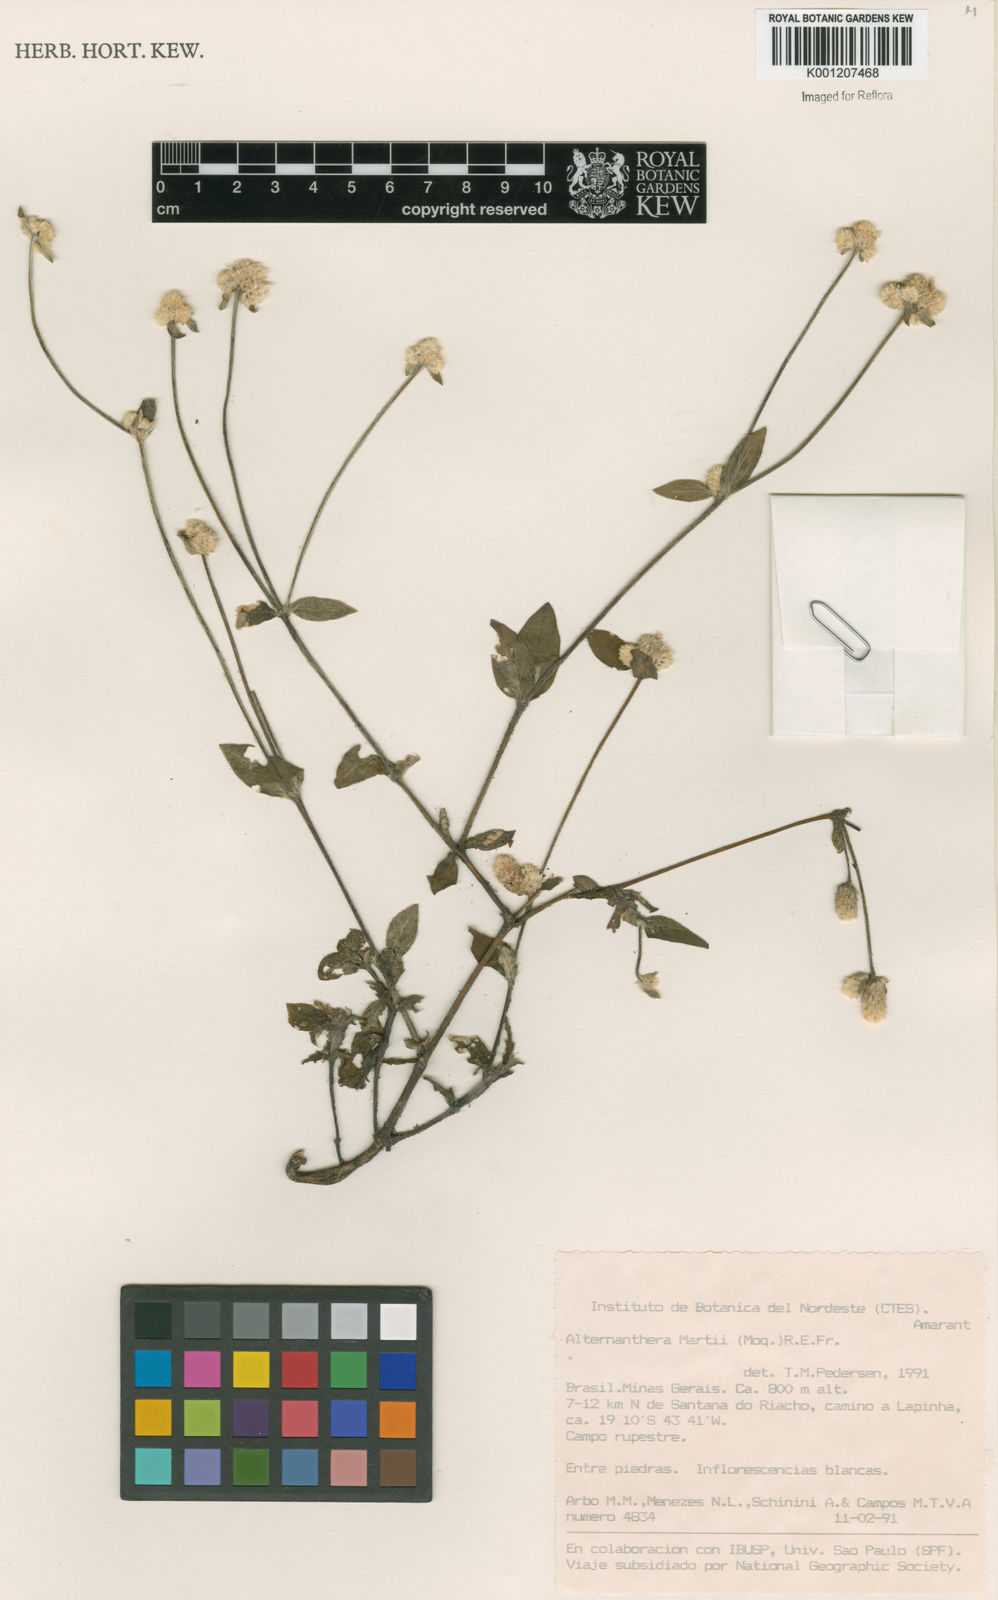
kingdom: Plantae
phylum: Tracheophyta
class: Magnoliopsida
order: Caryophyllales
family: Amaranthaceae
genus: Alternanthera
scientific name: Alternanthera martii
